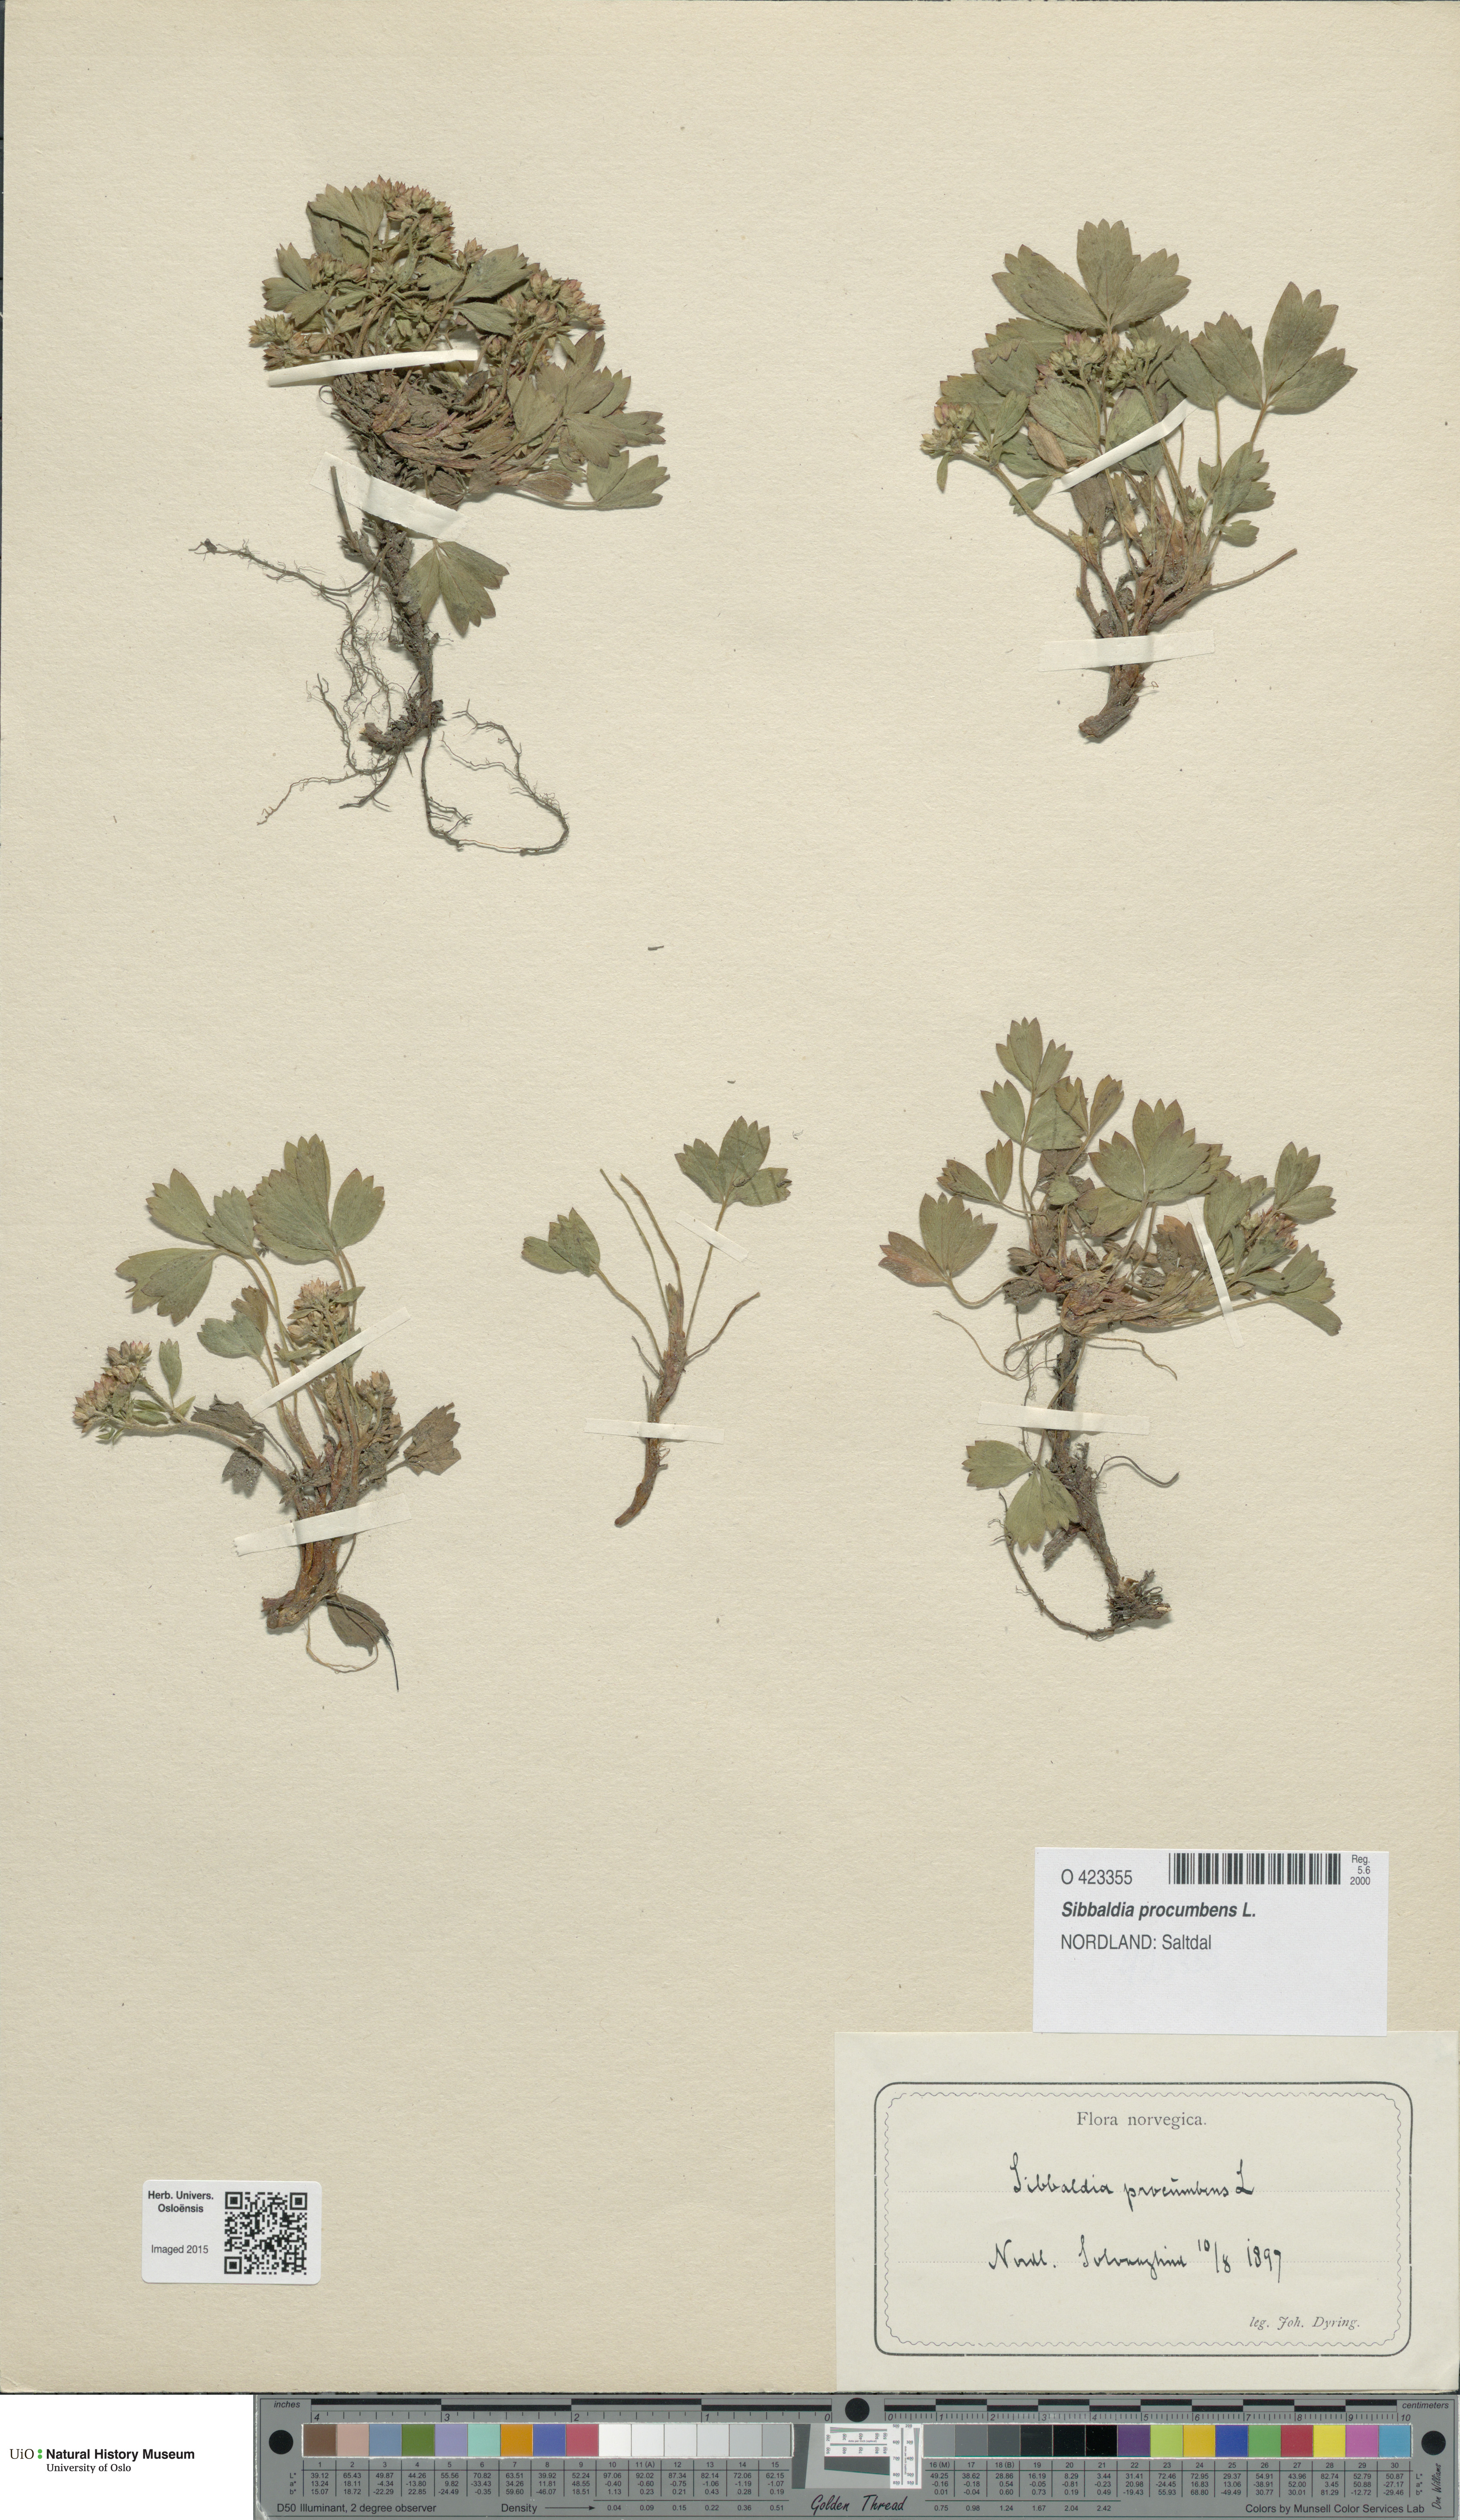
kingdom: Plantae
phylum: Tracheophyta
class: Magnoliopsida
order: Rosales
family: Rosaceae
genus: Sibbaldia
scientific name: Sibbaldia procumbens
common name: Creeping sibbaldia
